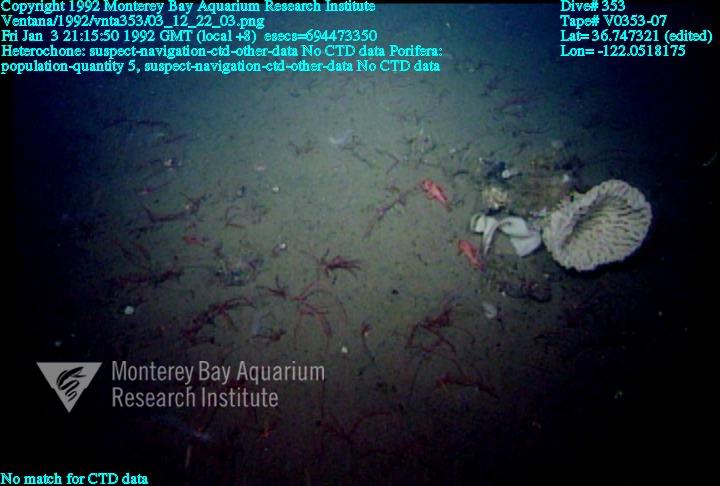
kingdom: Animalia
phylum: Porifera
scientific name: Porifera
